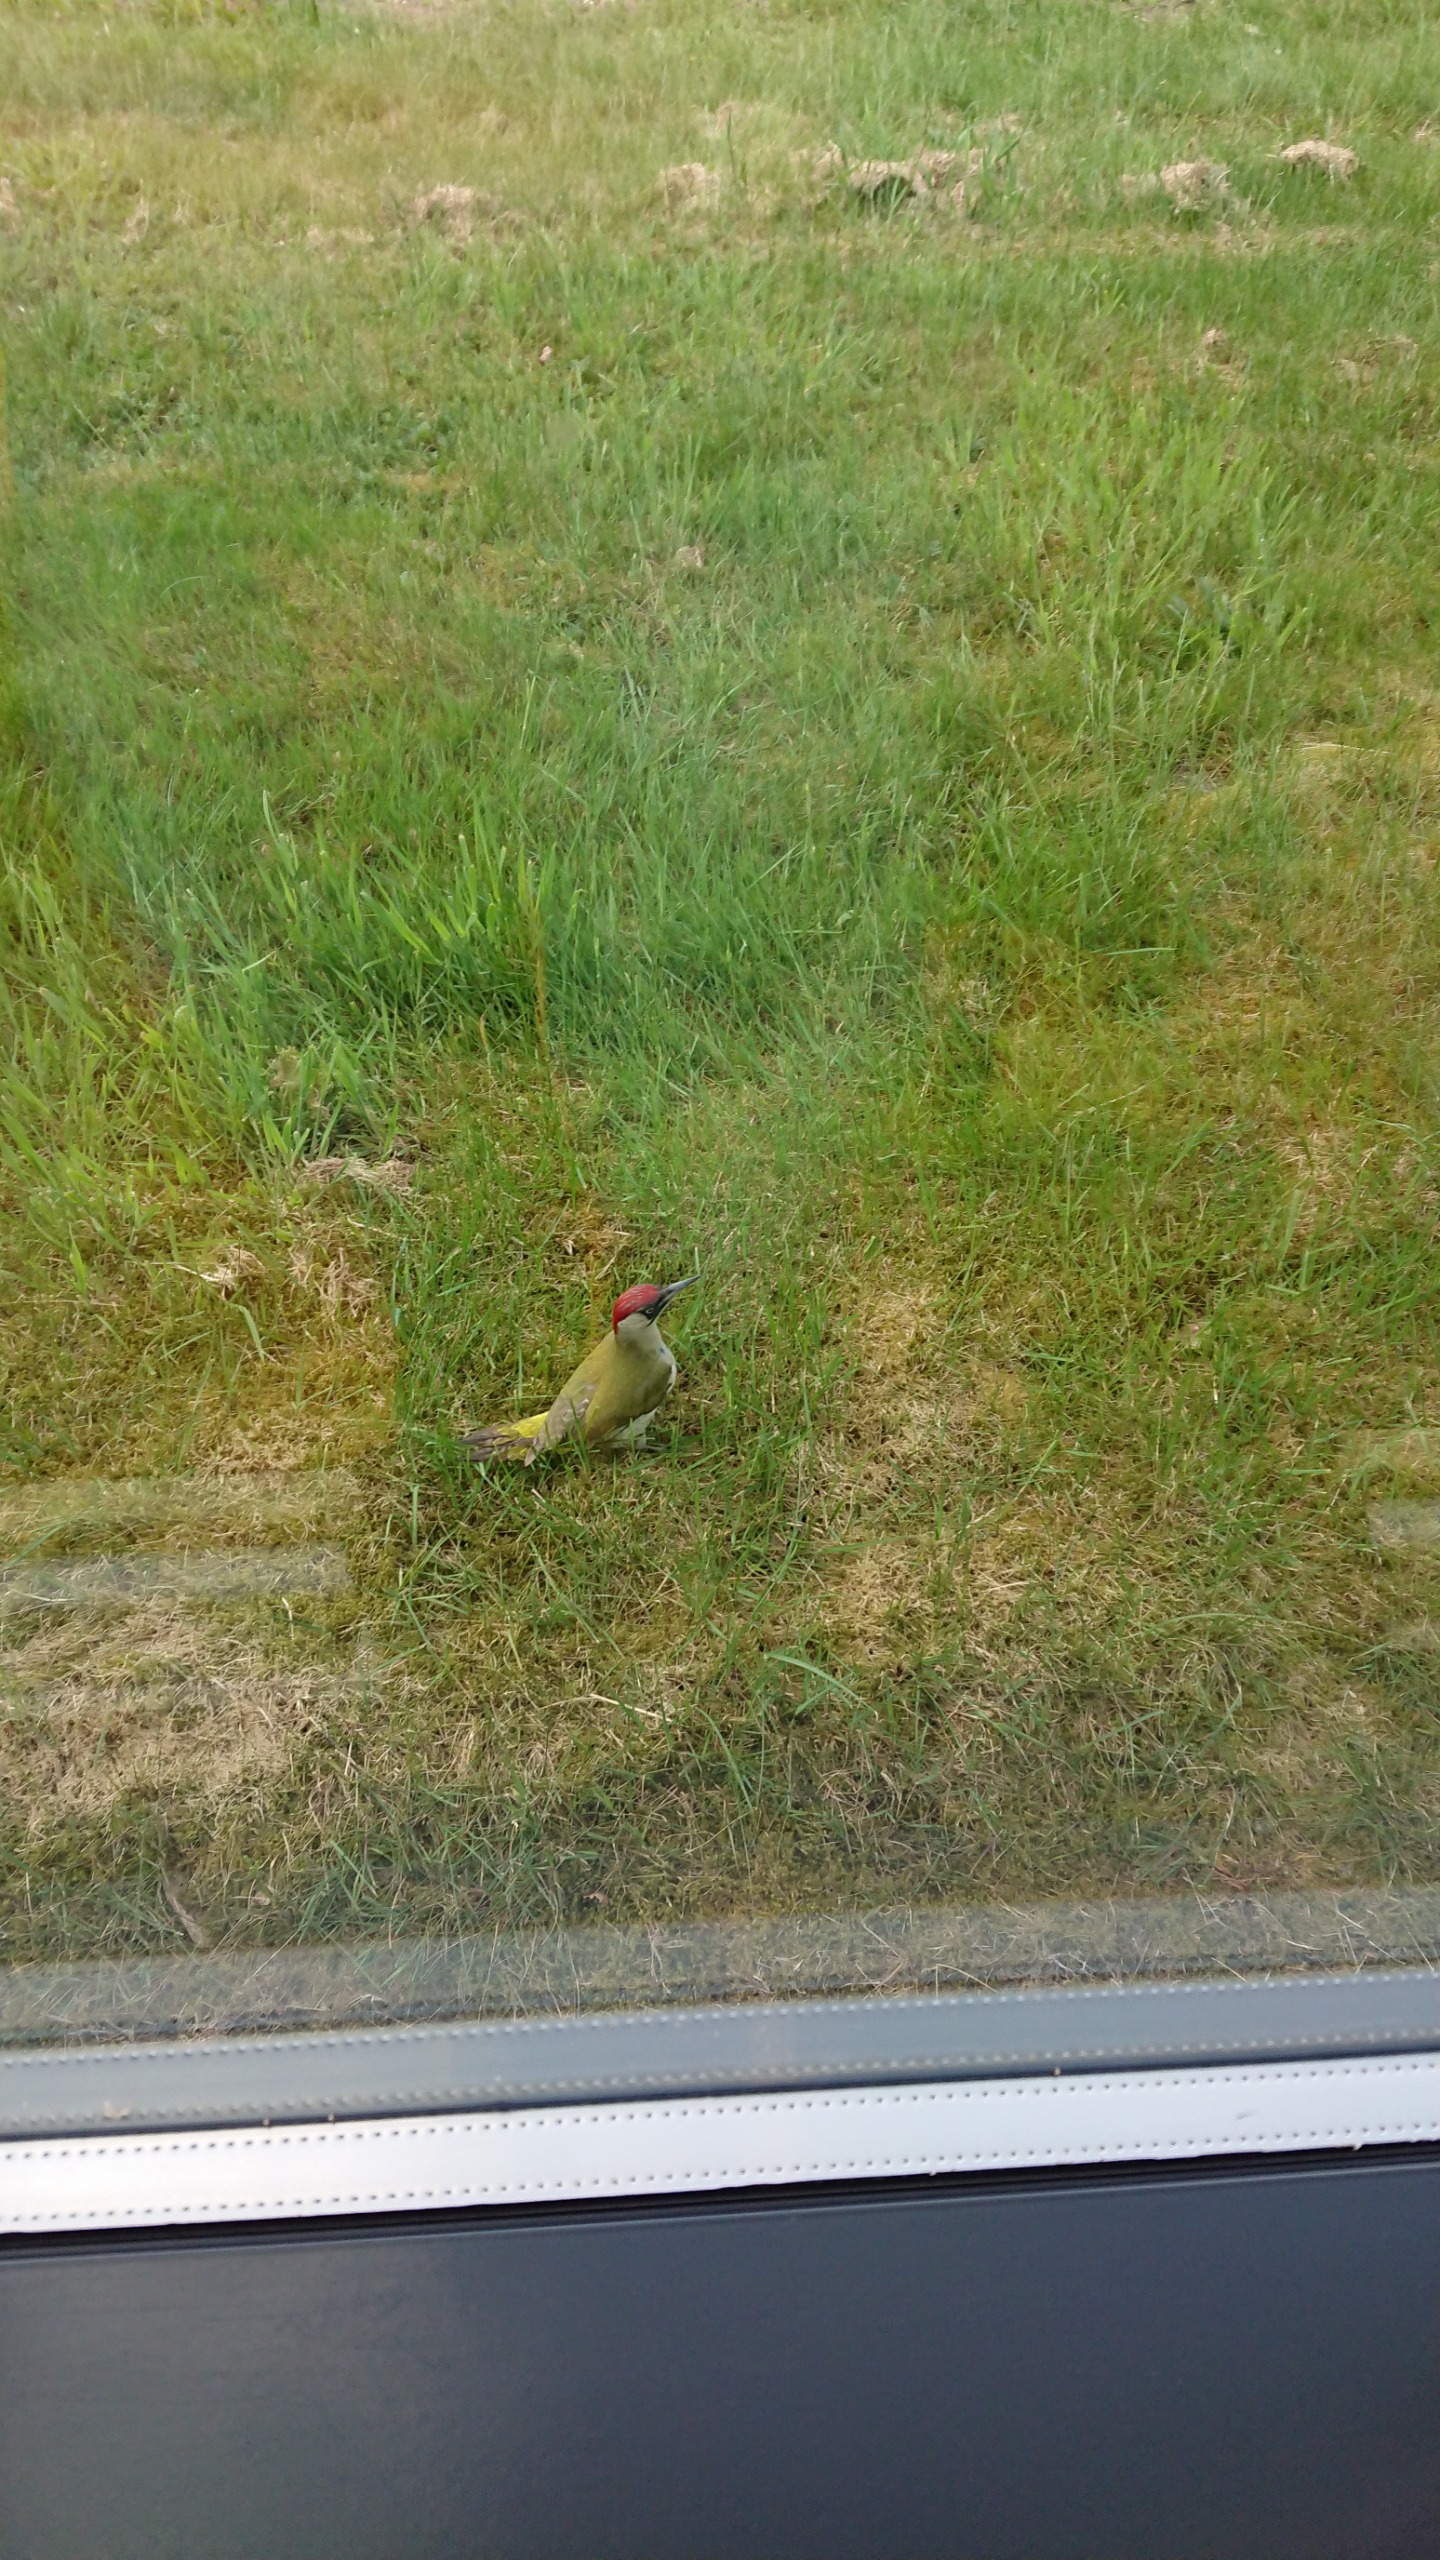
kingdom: Animalia
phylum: Chordata
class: Aves
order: Piciformes
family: Picidae
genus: Picus
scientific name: Picus viridis
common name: Grønspætte
